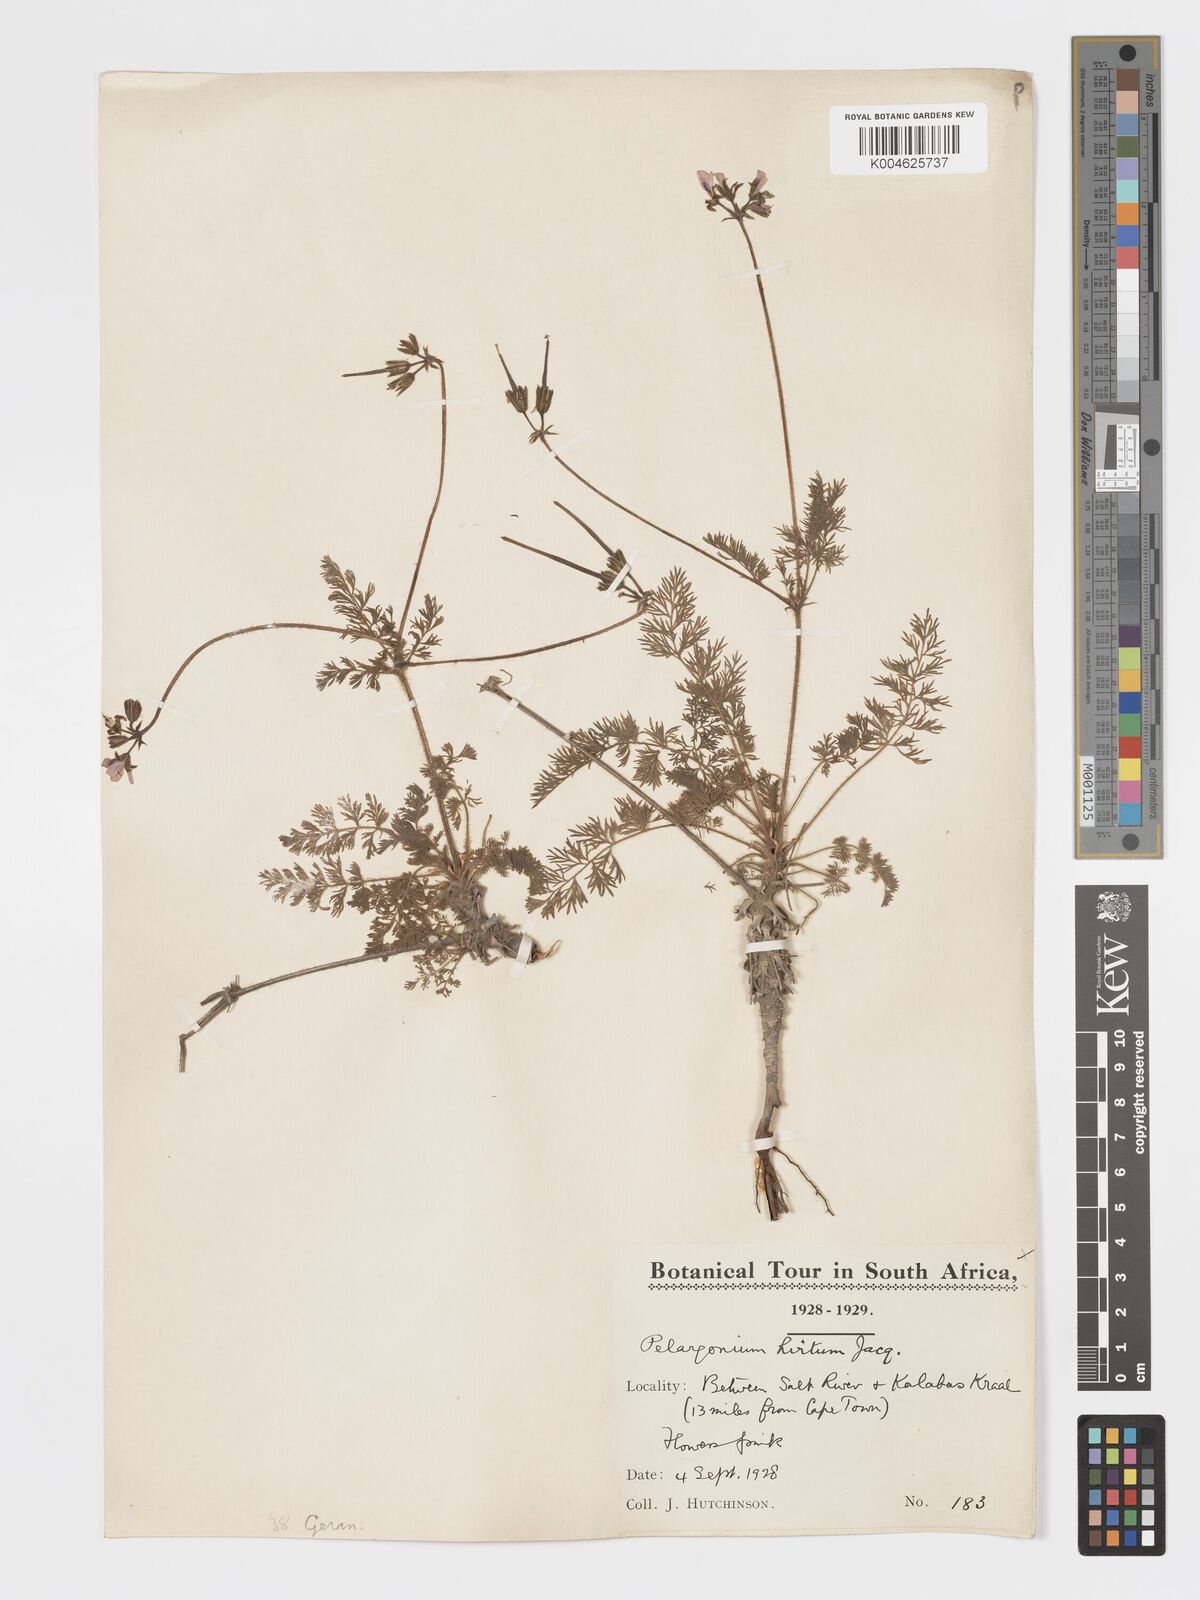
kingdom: Plantae
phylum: Tracheophyta
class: Magnoliopsida
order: Geraniales
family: Geraniaceae
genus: Pelargonium
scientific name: Pelargonium
